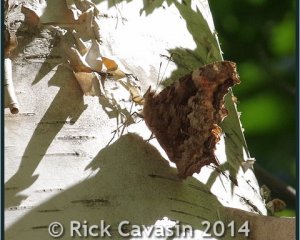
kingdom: Animalia
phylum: Arthropoda
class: Insecta
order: Lepidoptera
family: Nymphalidae
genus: Polygonia
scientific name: Polygonia vaualbum
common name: Compton Tortoiseshell
